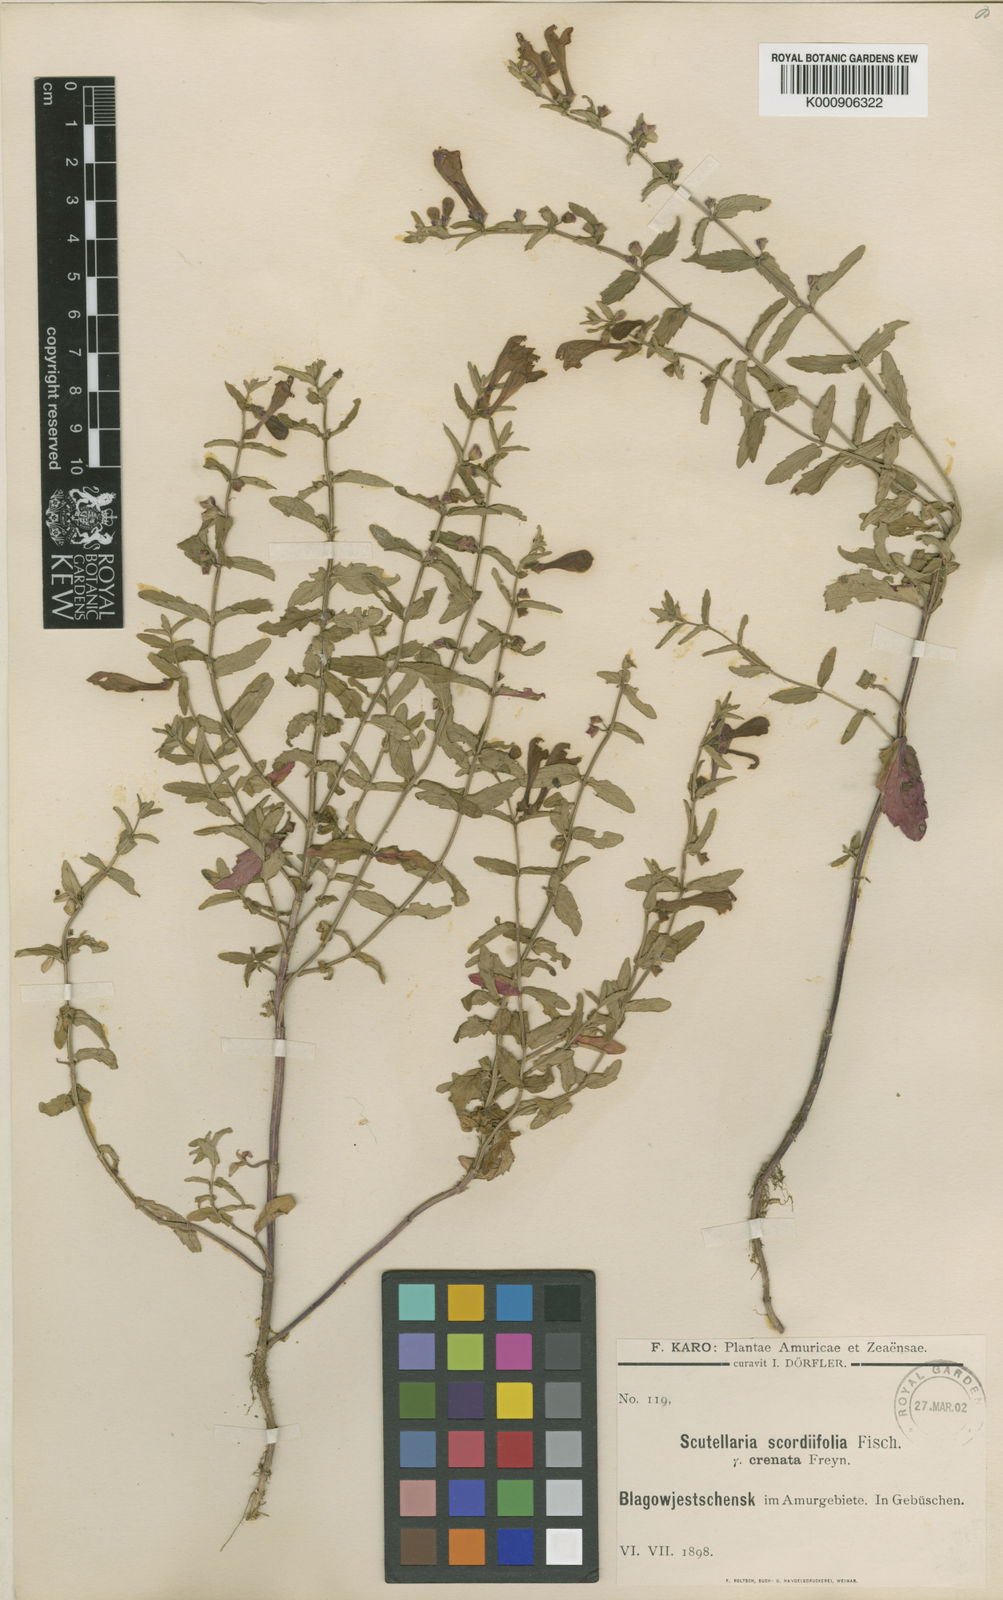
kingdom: Plantae
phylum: Tracheophyta
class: Magnoliopsida
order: Lamiales
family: Lamiaceae
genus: Scutellaria
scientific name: Scutellaria scordiifolia
